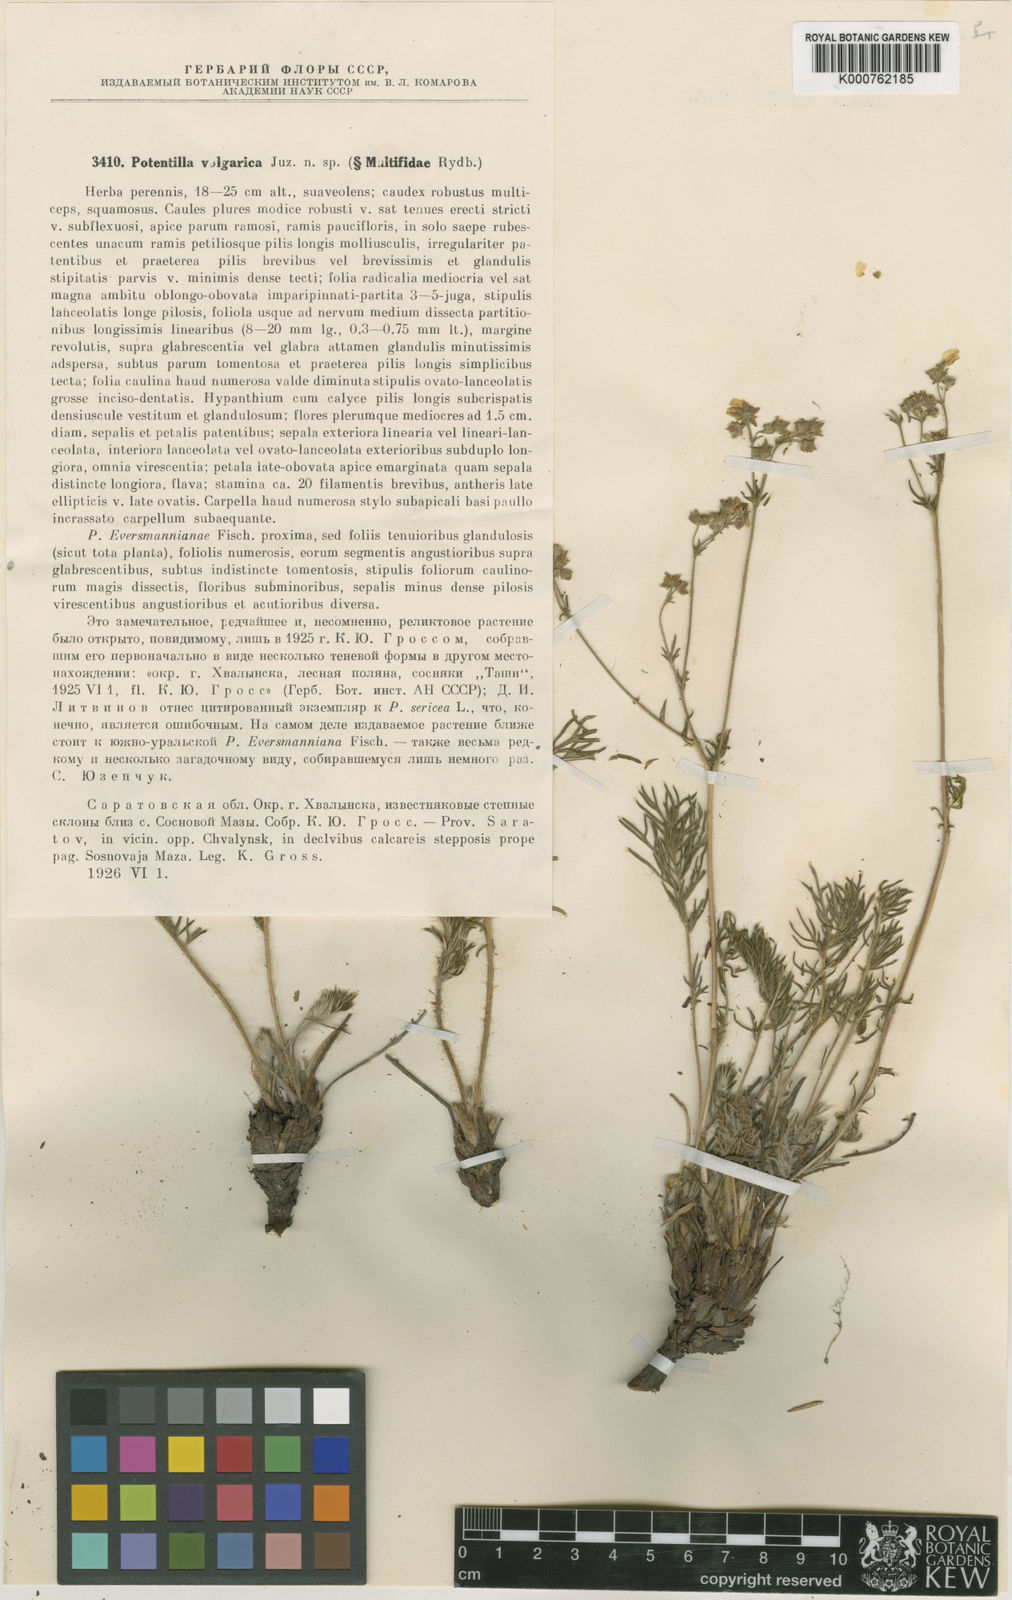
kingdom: Plantae
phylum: Tracheophyta
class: Magnoliopsida
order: Rosales
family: Rosaceae
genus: Potentilla
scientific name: Potentilla pimpinelloides
